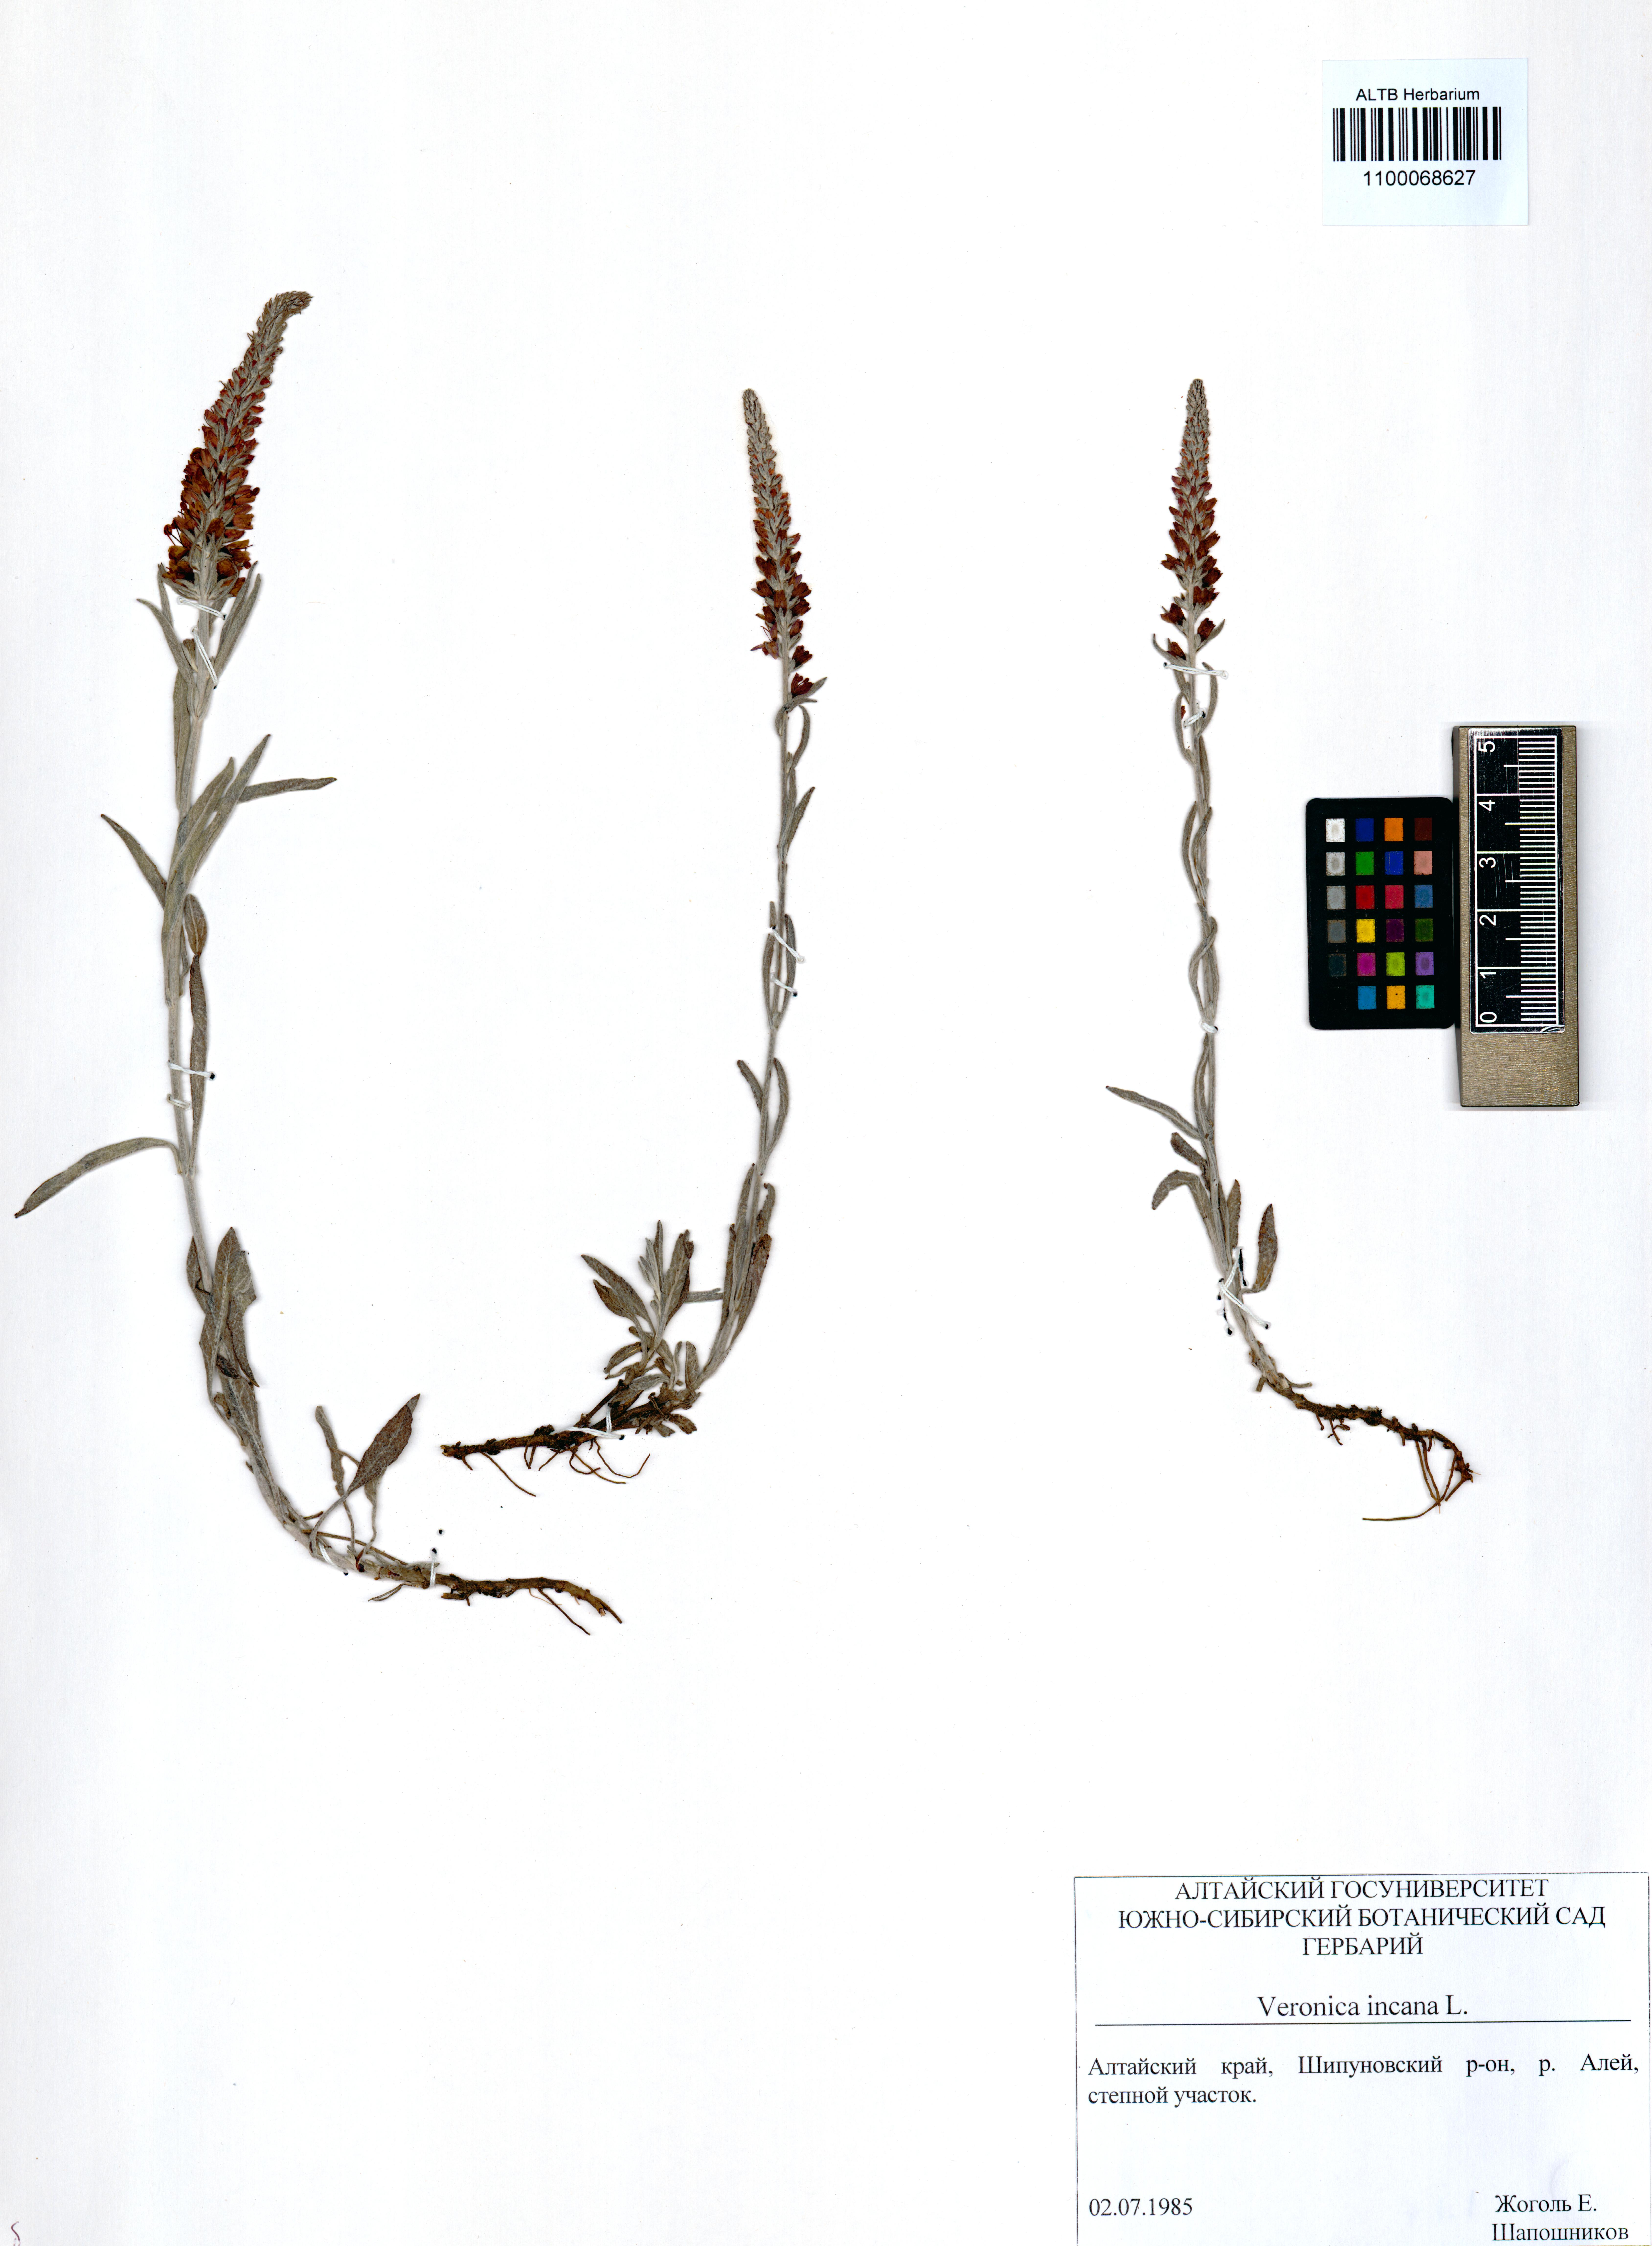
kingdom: Plantae
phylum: Tracheophyta
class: Magnoliopsida
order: Lamiales
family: Plantaginaceae
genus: Veronica
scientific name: Veronica incana
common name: Silver speedwell
